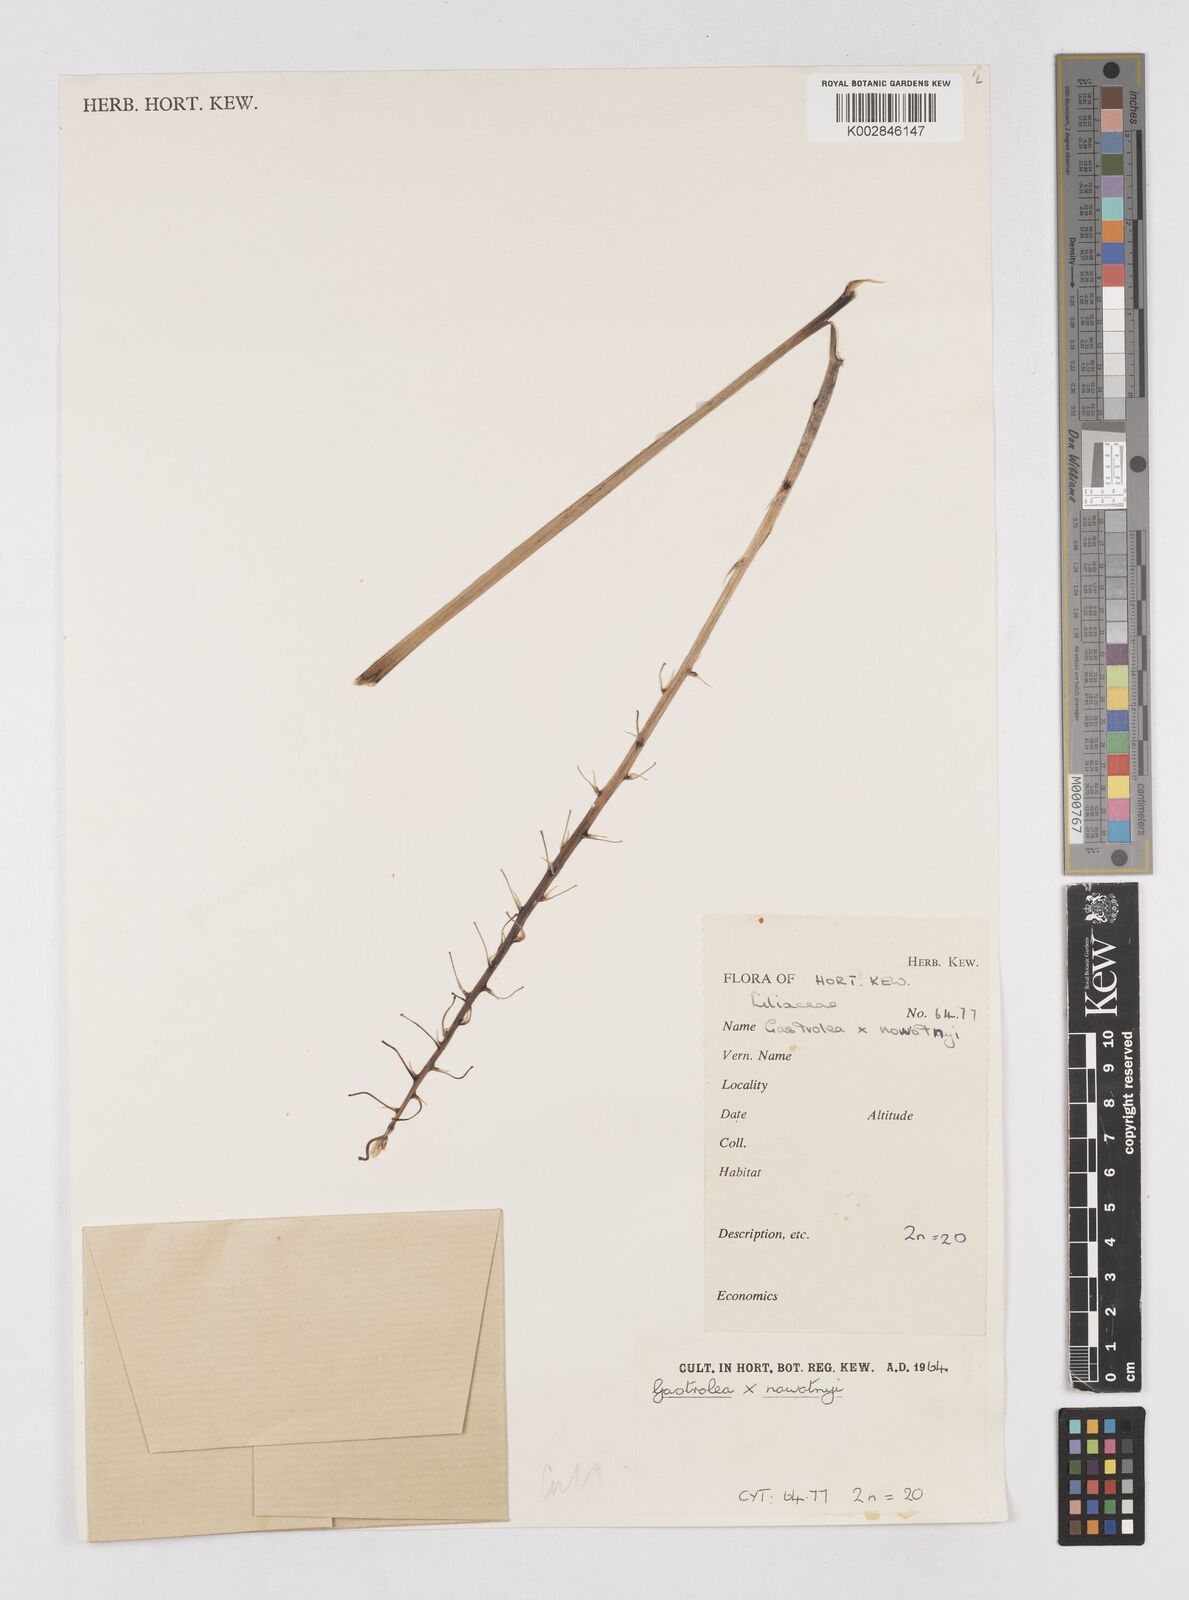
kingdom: Plantae
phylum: Tracheophyta
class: Liliopsida
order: Asparagales
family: Asphodelaceae
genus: Gasteria
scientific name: Gasteria
